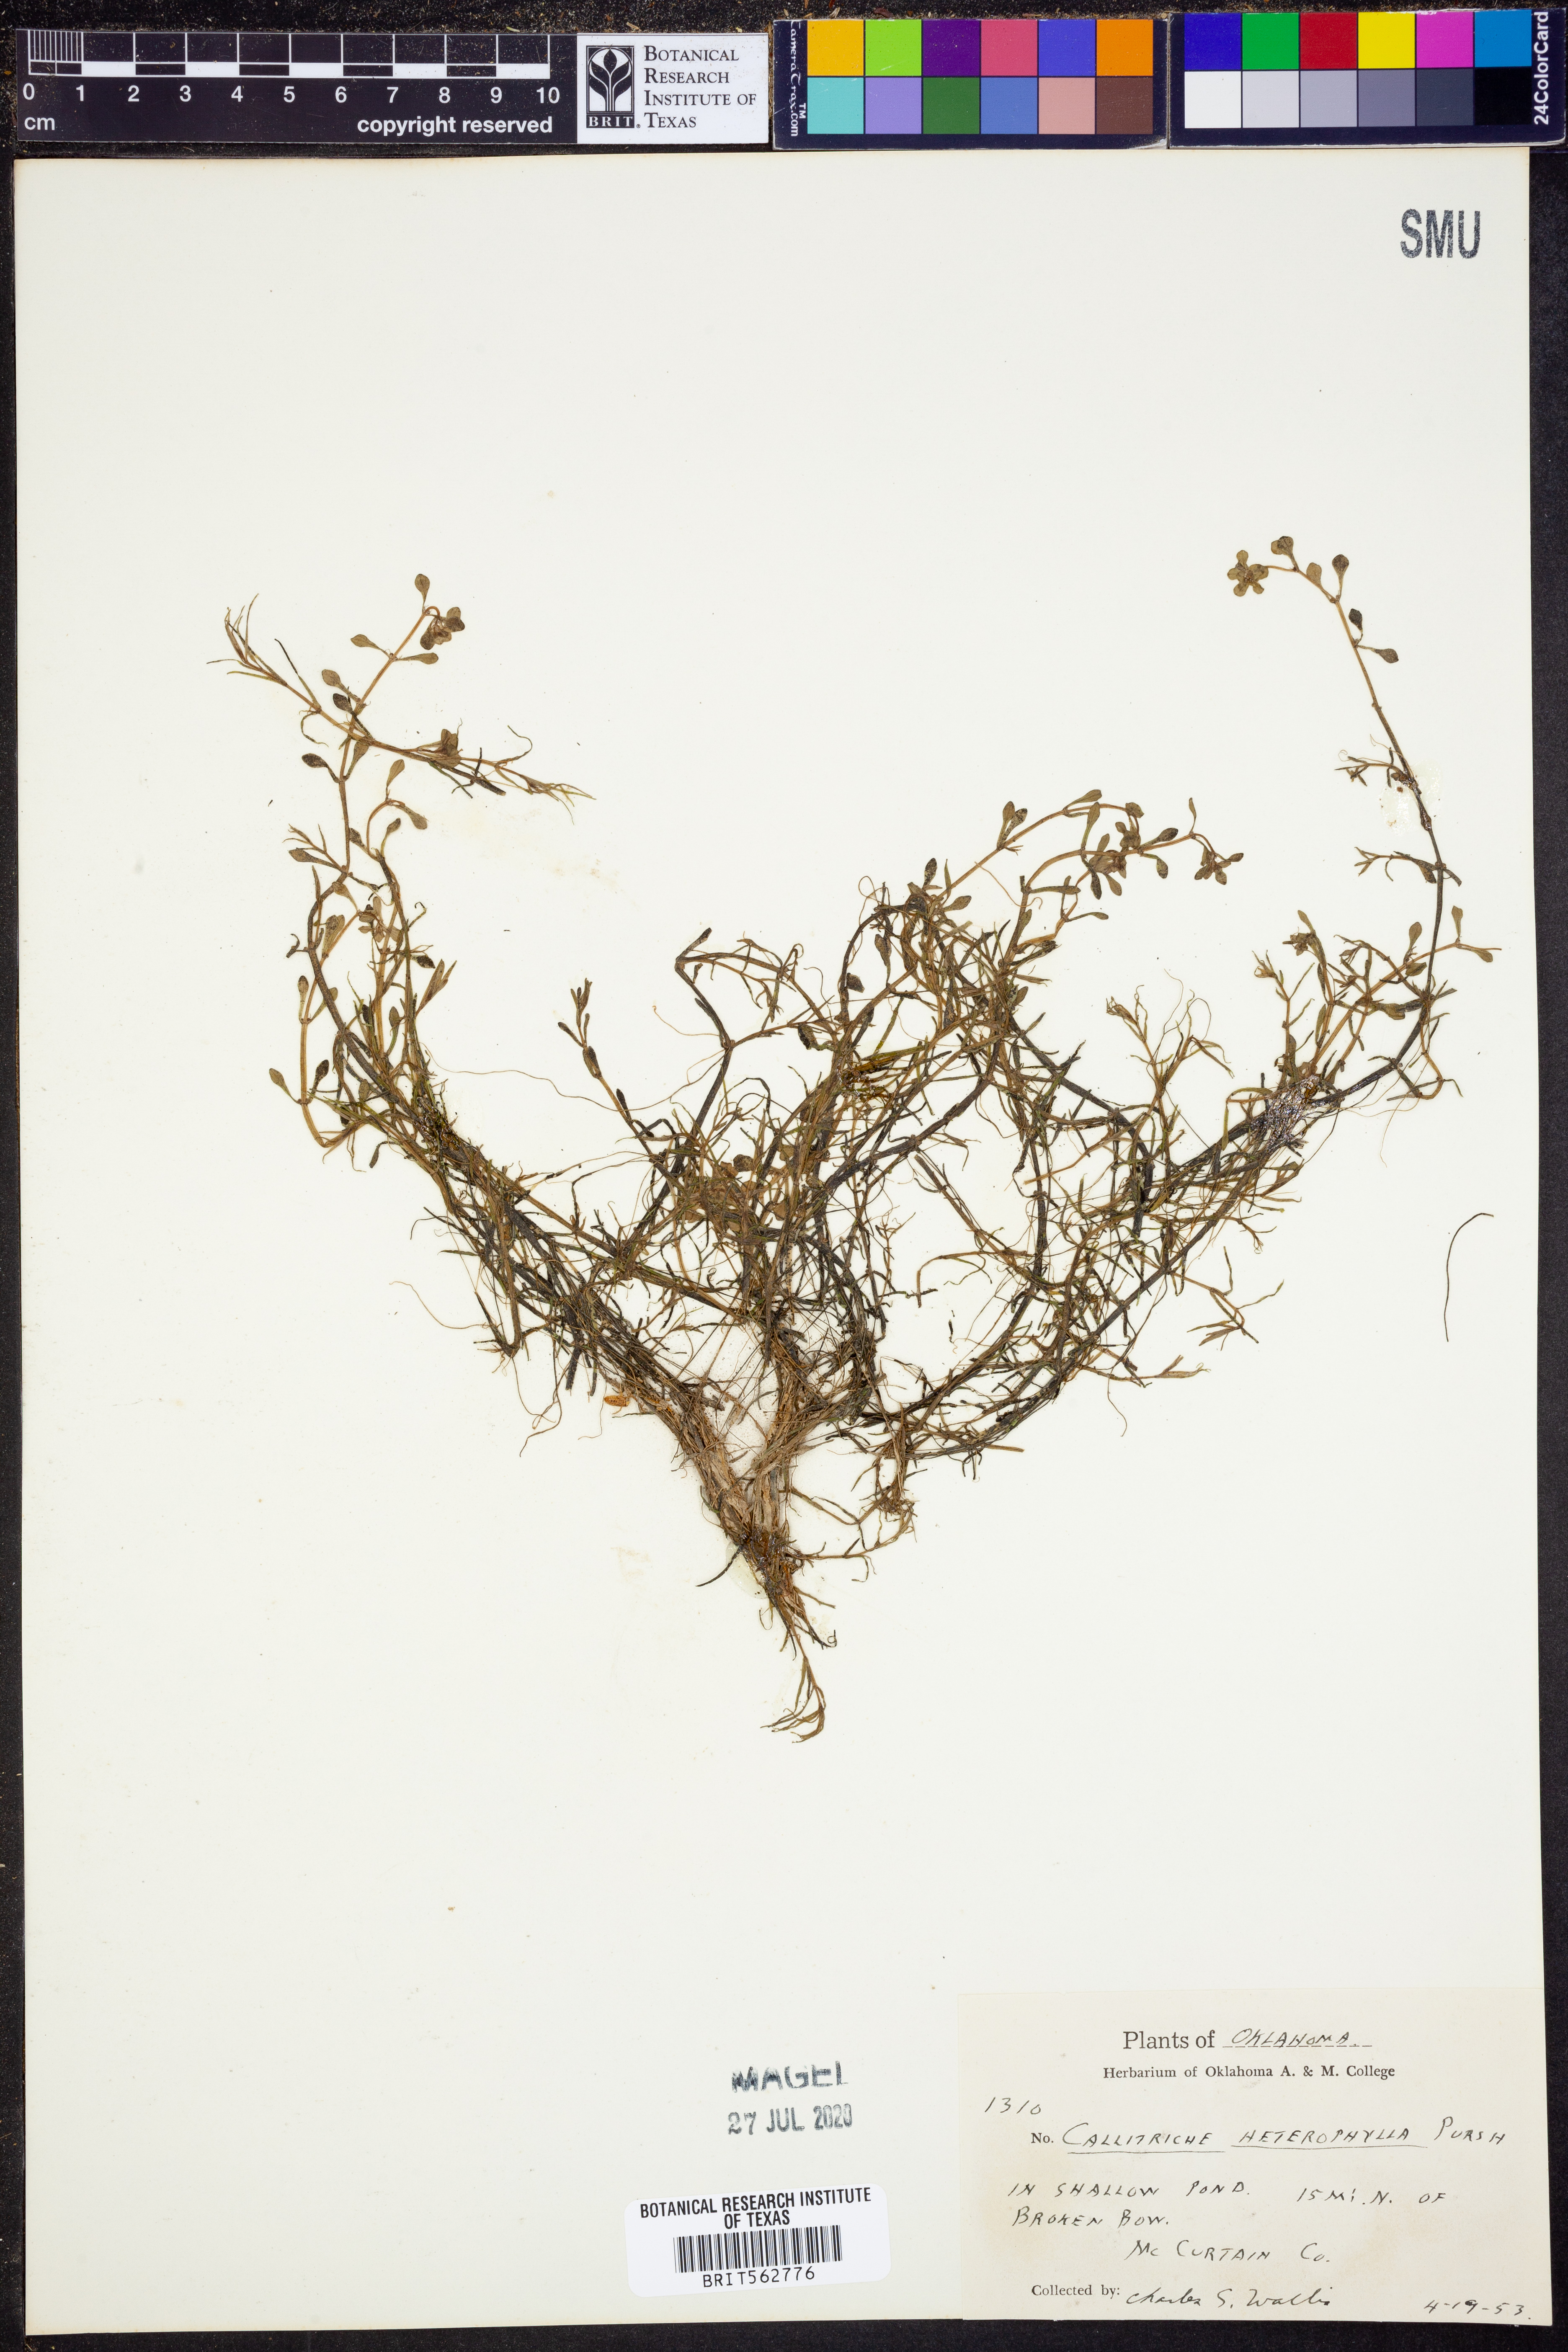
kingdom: Plantae
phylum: Tracheophyta
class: Magnoliopsida
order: Lamiales
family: Plantaginaceae
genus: Callitriche
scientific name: Callitriche heterophylla
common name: Two-headed water-starwort
